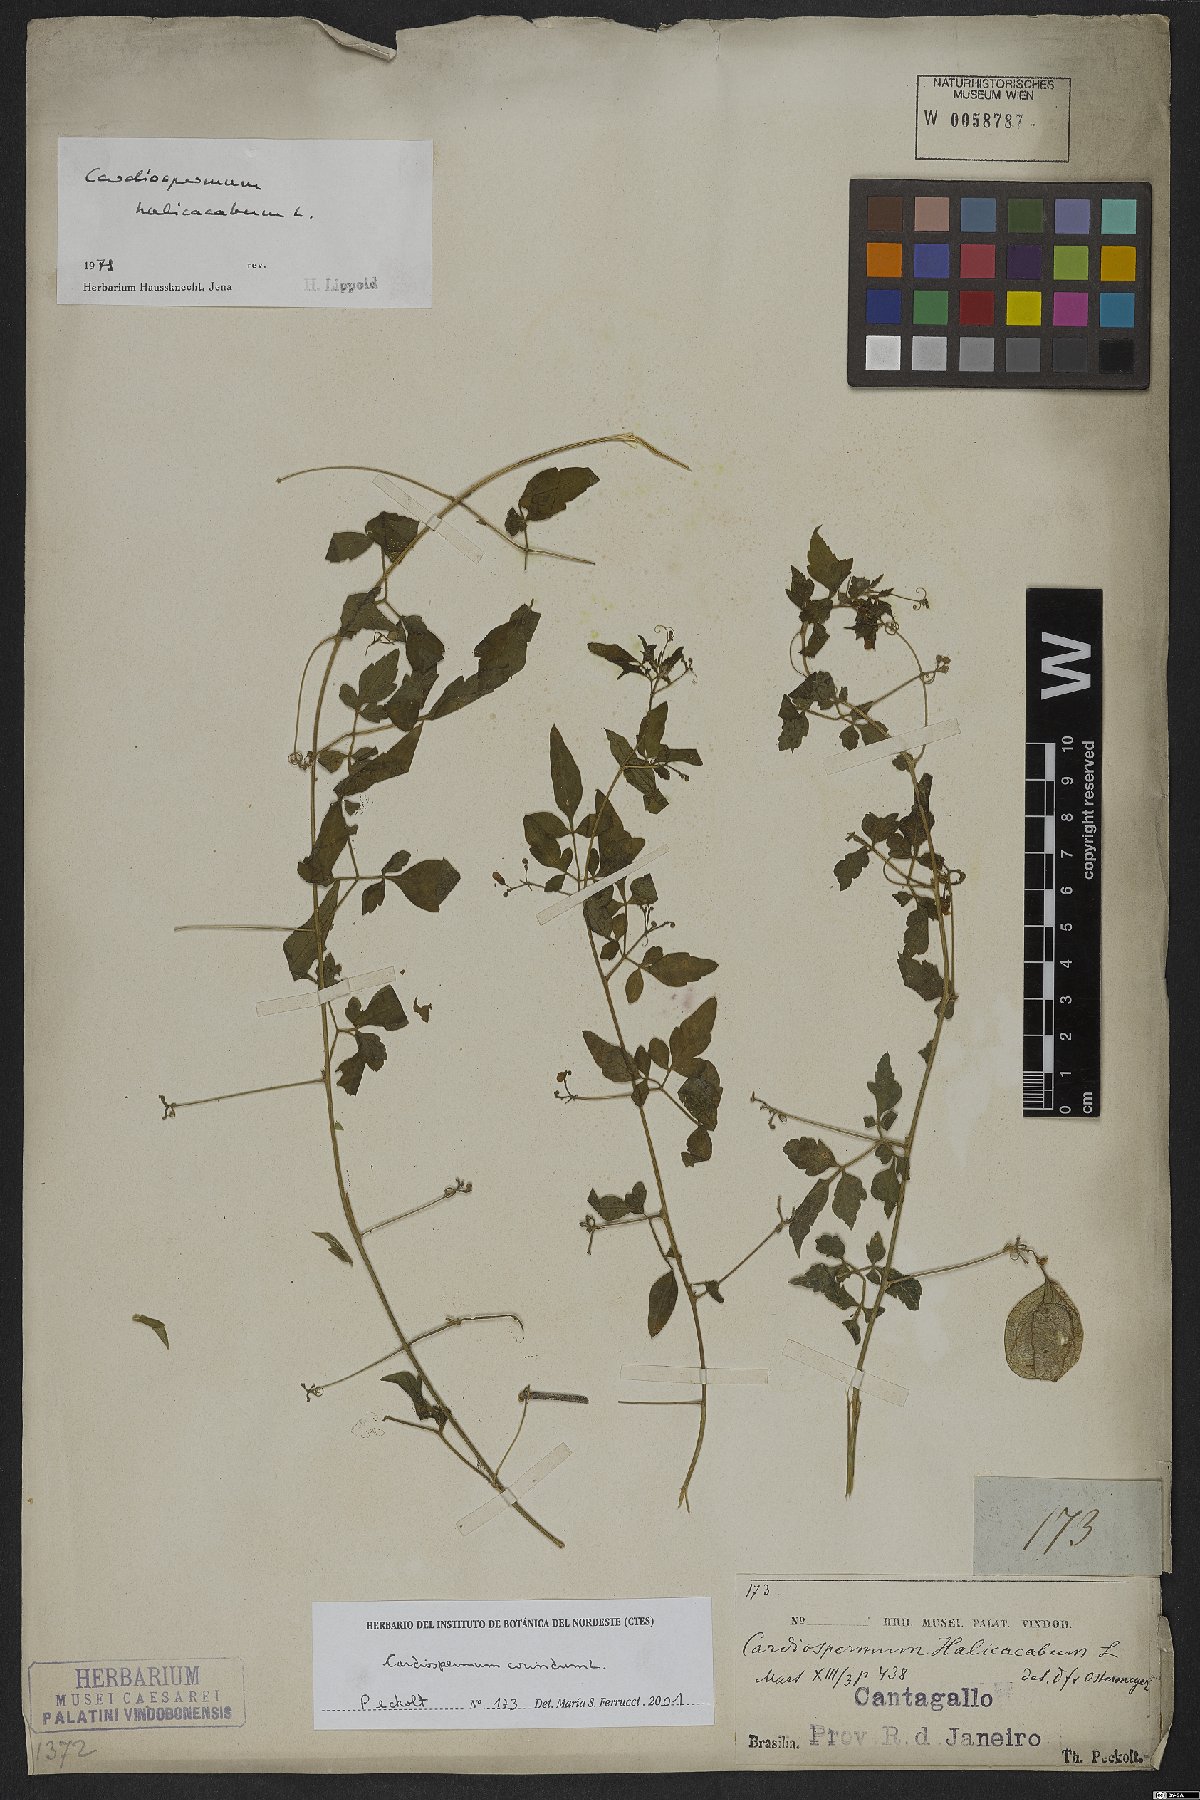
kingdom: Plantae
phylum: Tracheophyta
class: Magnoliopsida
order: Sapindales
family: Sapindaceae
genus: Cardiospermum
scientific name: Cardiospermum corindum
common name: Faux persil
